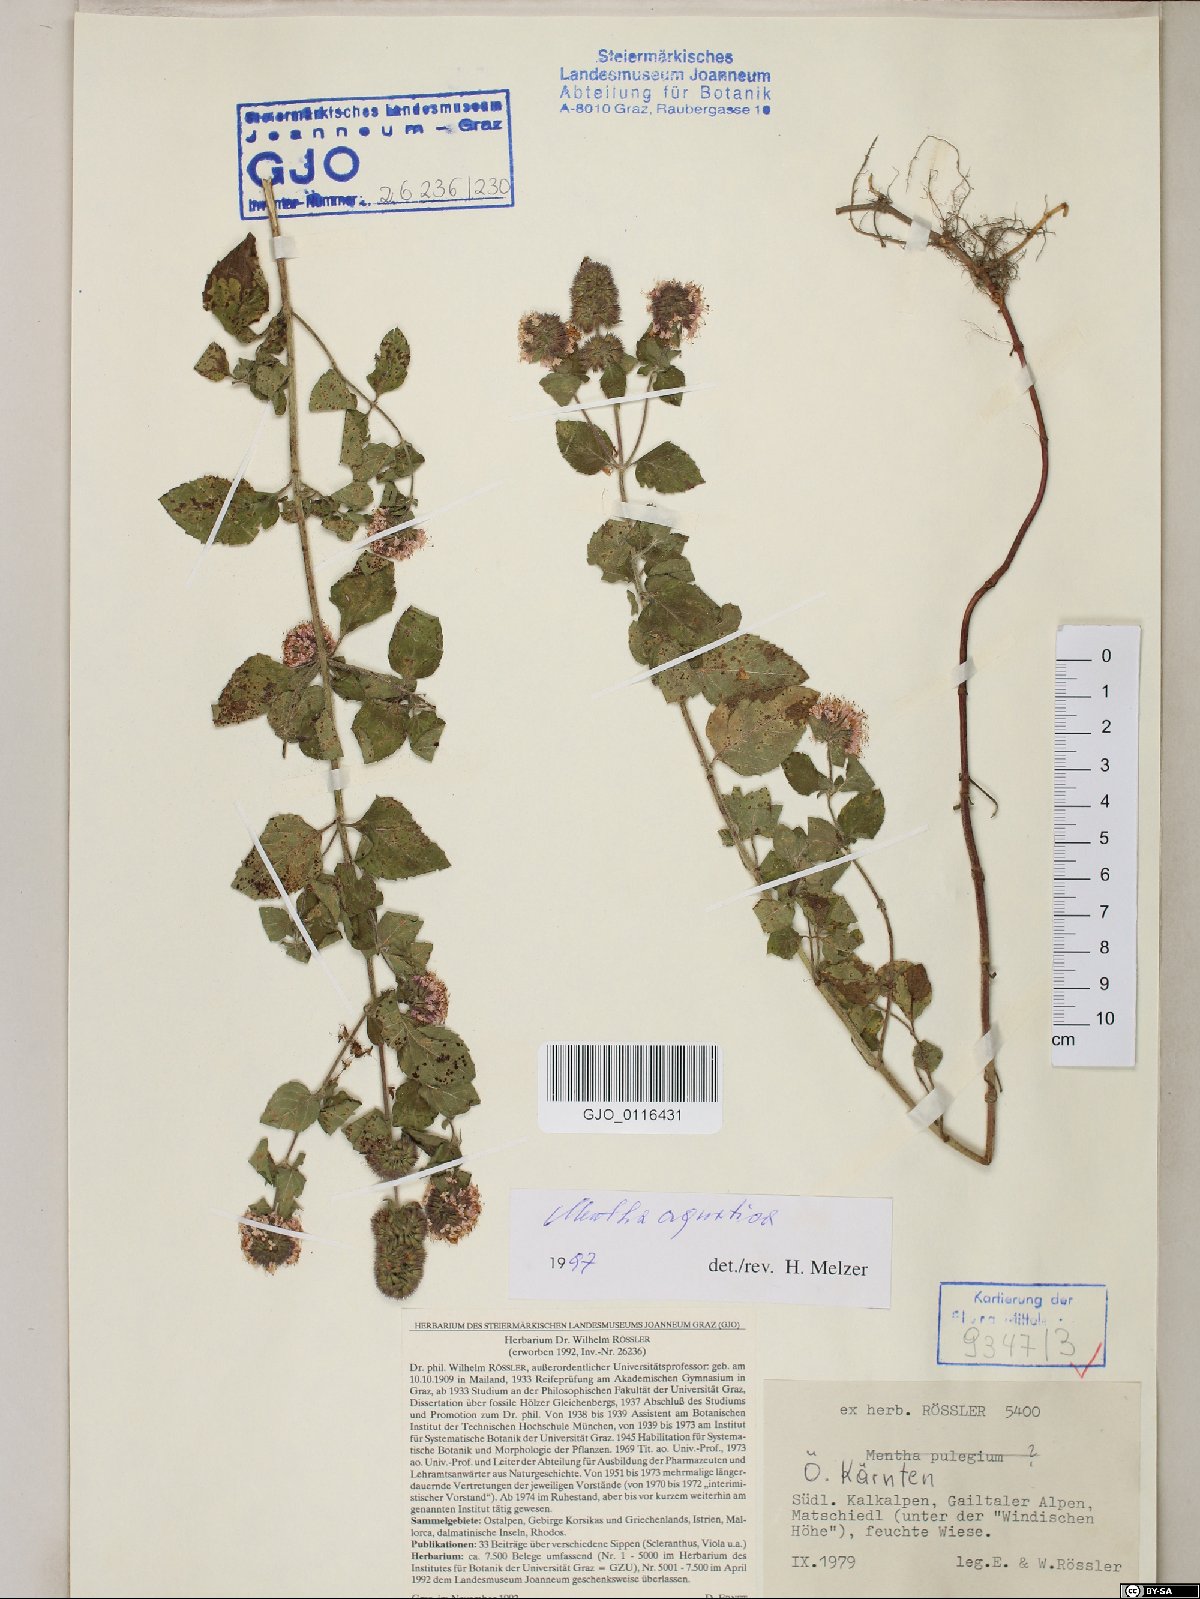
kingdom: Plantae
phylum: Tracheophyta
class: Magnoliopsida
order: Lamiales
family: Lamiaceae
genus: Mentha
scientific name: Mentha aquatica
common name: Water mint
